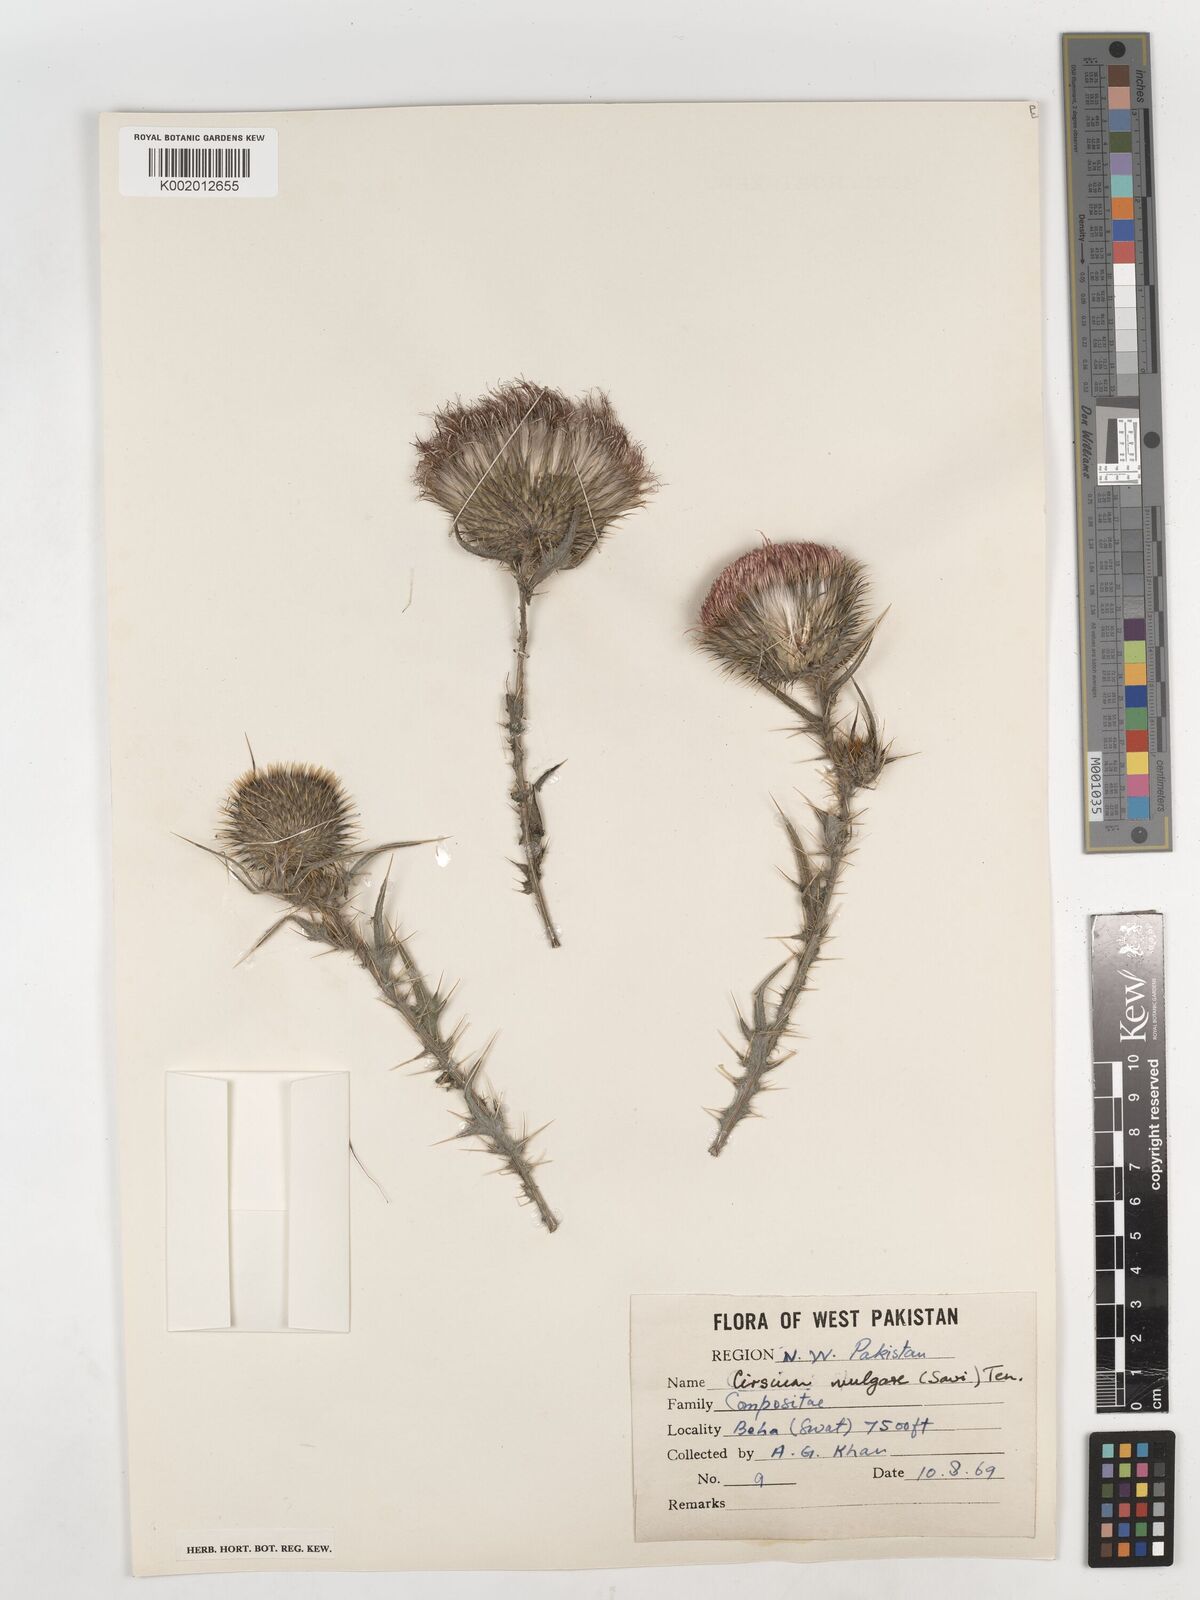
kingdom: Plantae
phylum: Tracheophyta
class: Magnoliopsida
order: Asterales
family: Asteraceae
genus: Cirsium
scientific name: Cirsium vulgare
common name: Bull thistle
